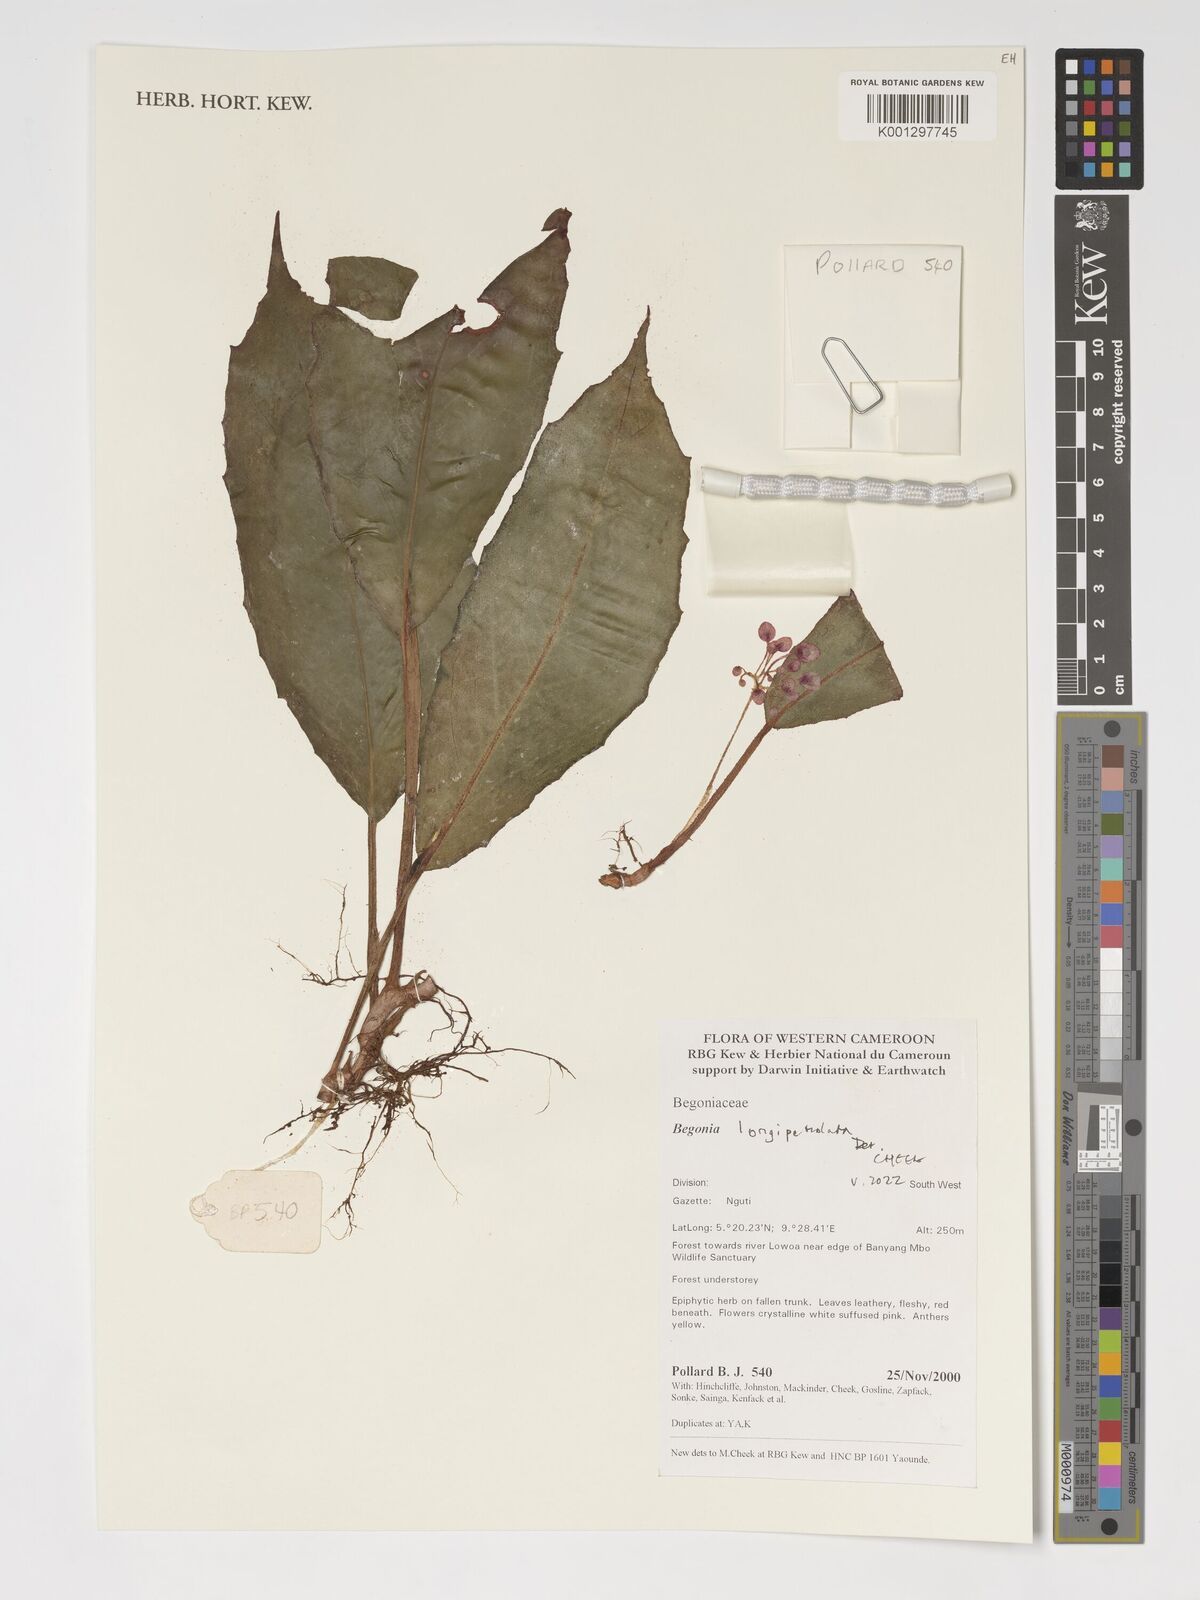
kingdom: Plantae
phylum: Tracheophyta
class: Magnoliopsida
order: Cucurbitales
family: Begoniaceae
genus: Begonia
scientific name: Begonia longipetiolata
